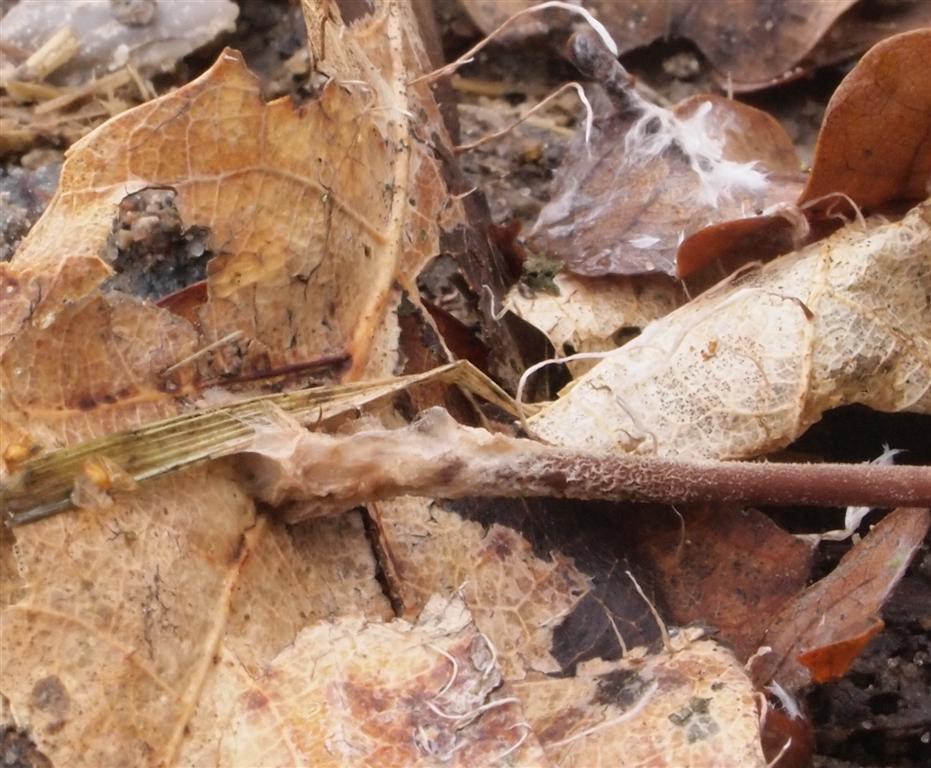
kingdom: Fungi
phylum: Basidiomycota
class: Agaricomycetes
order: Agaricales
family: Omphalotaceae
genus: Mycetinis
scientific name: Mycetinis querceus
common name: ege-løghat
